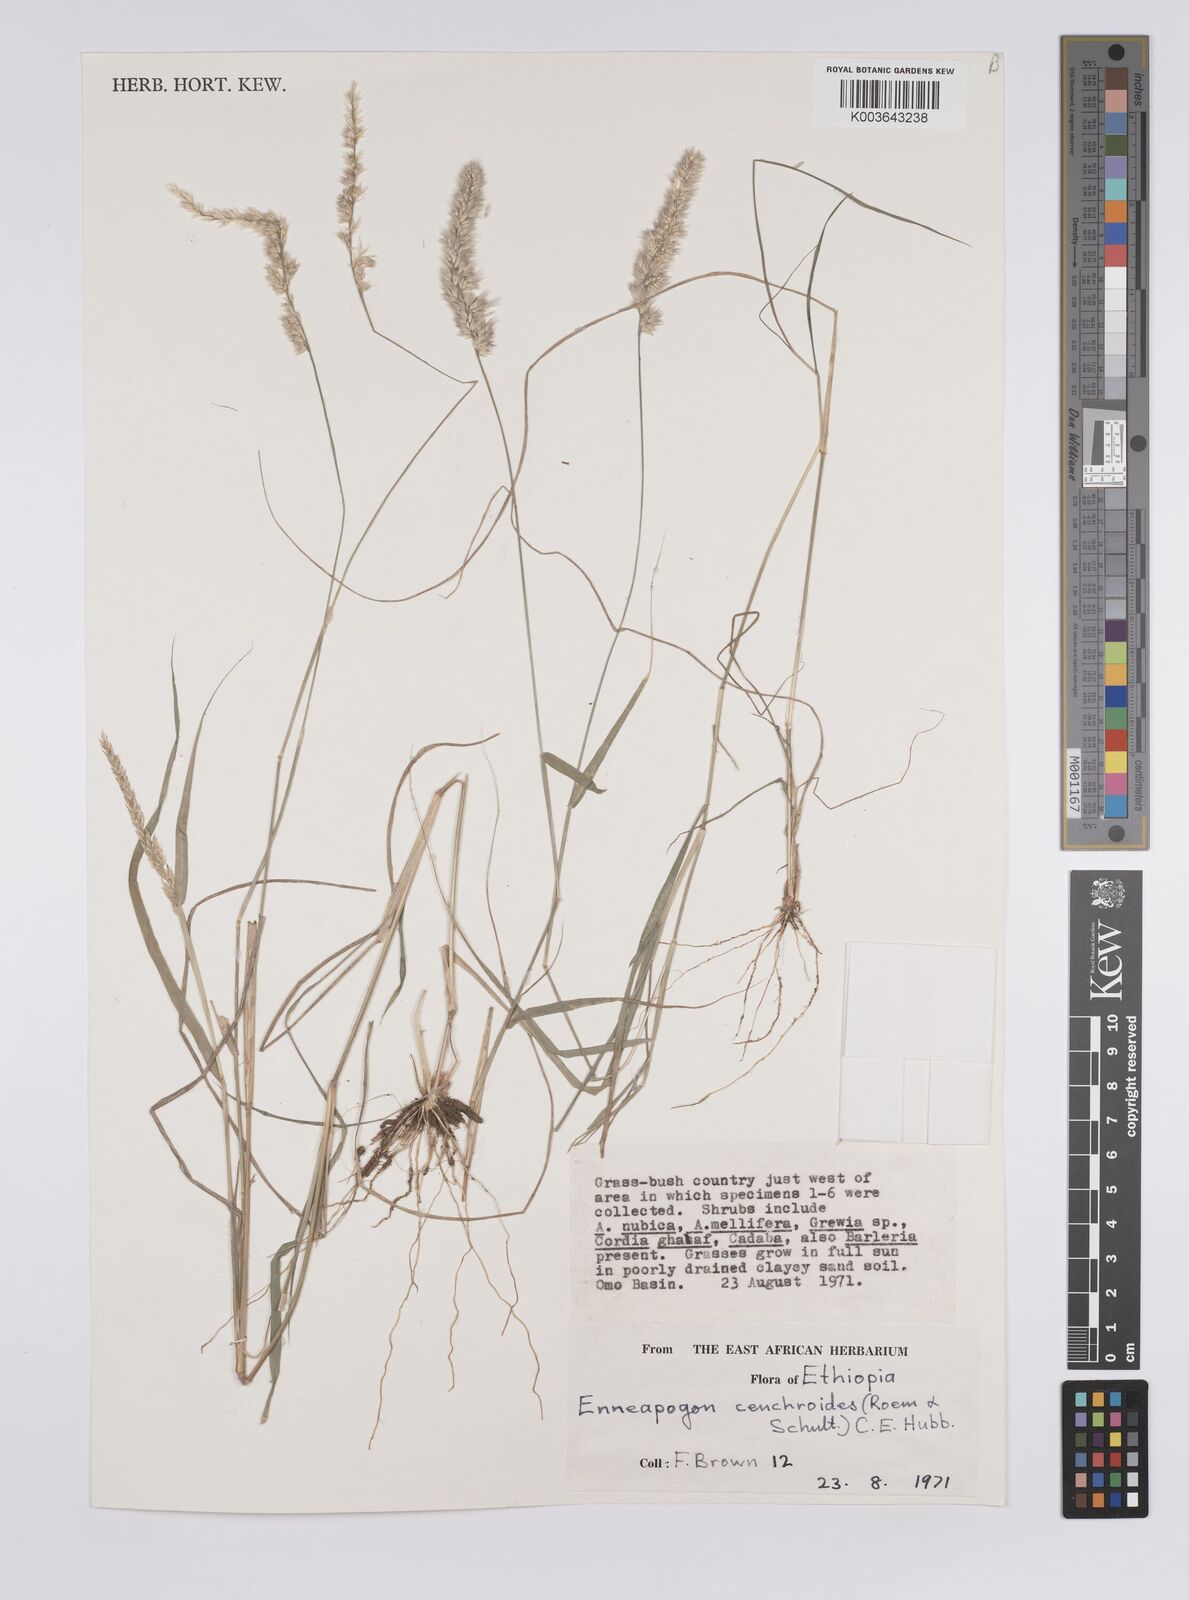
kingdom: Plantae
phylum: Tracheophyta
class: Liliopsida
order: Poales
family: Poaceae
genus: Enneapogon
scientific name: Enneapogon cenchroides
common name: Soft feather pappusgrass
